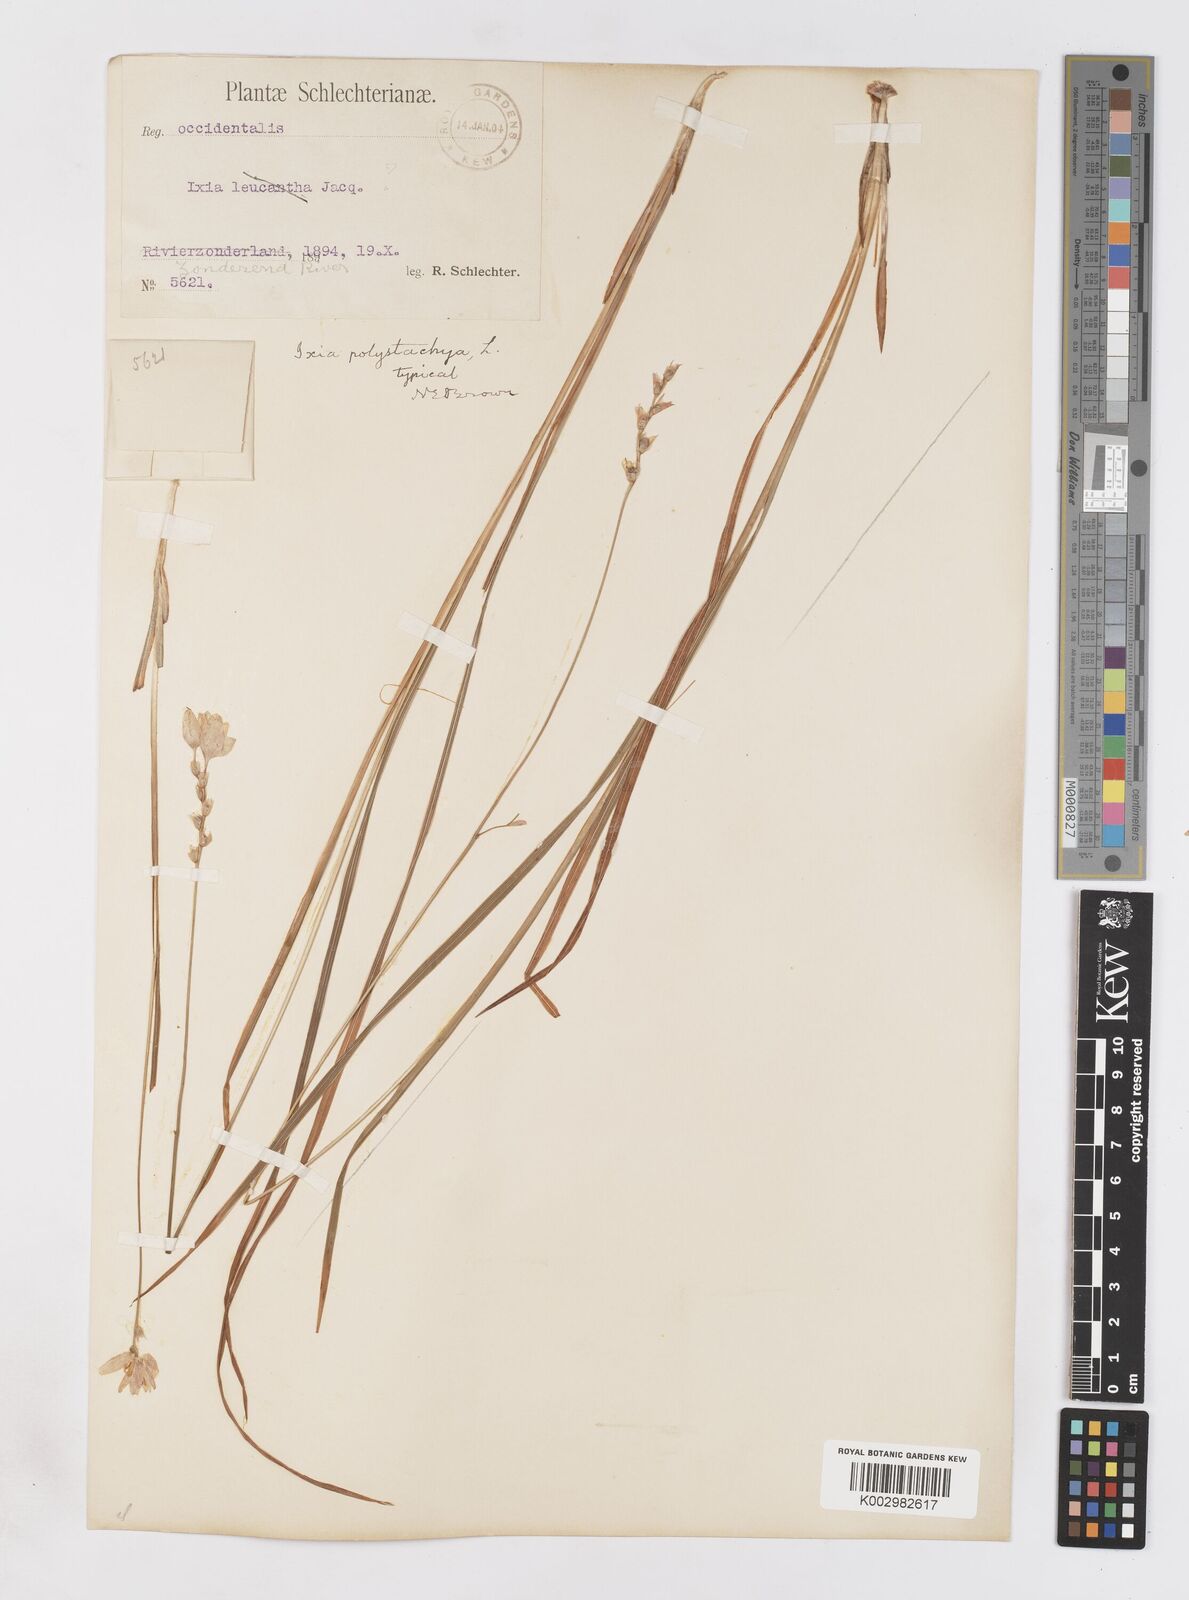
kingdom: Plantae
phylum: Tracheophyta
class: Liliopsida
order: Asparagales
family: Iridaceae
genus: Ixia
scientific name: Ixia polystachya
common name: White-and-yellow-flower cornlily
